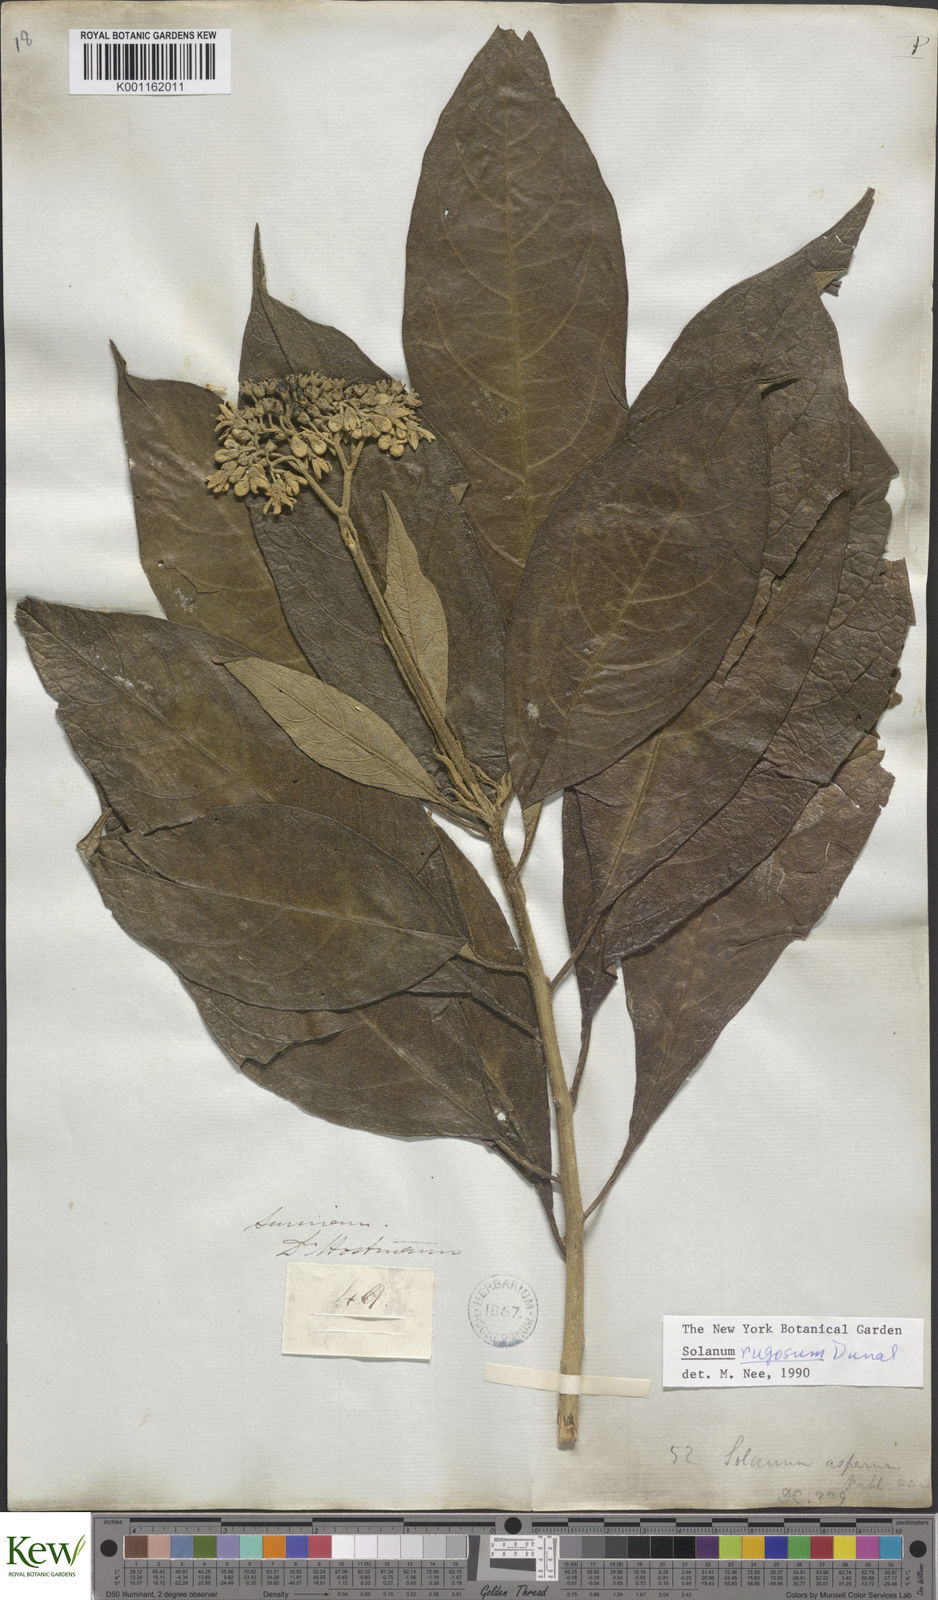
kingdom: Plantae
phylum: Tracheophyta
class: Magnoliopsida
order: Solanales
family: Solanaceae
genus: Solanum
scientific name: Solanum rugosum
